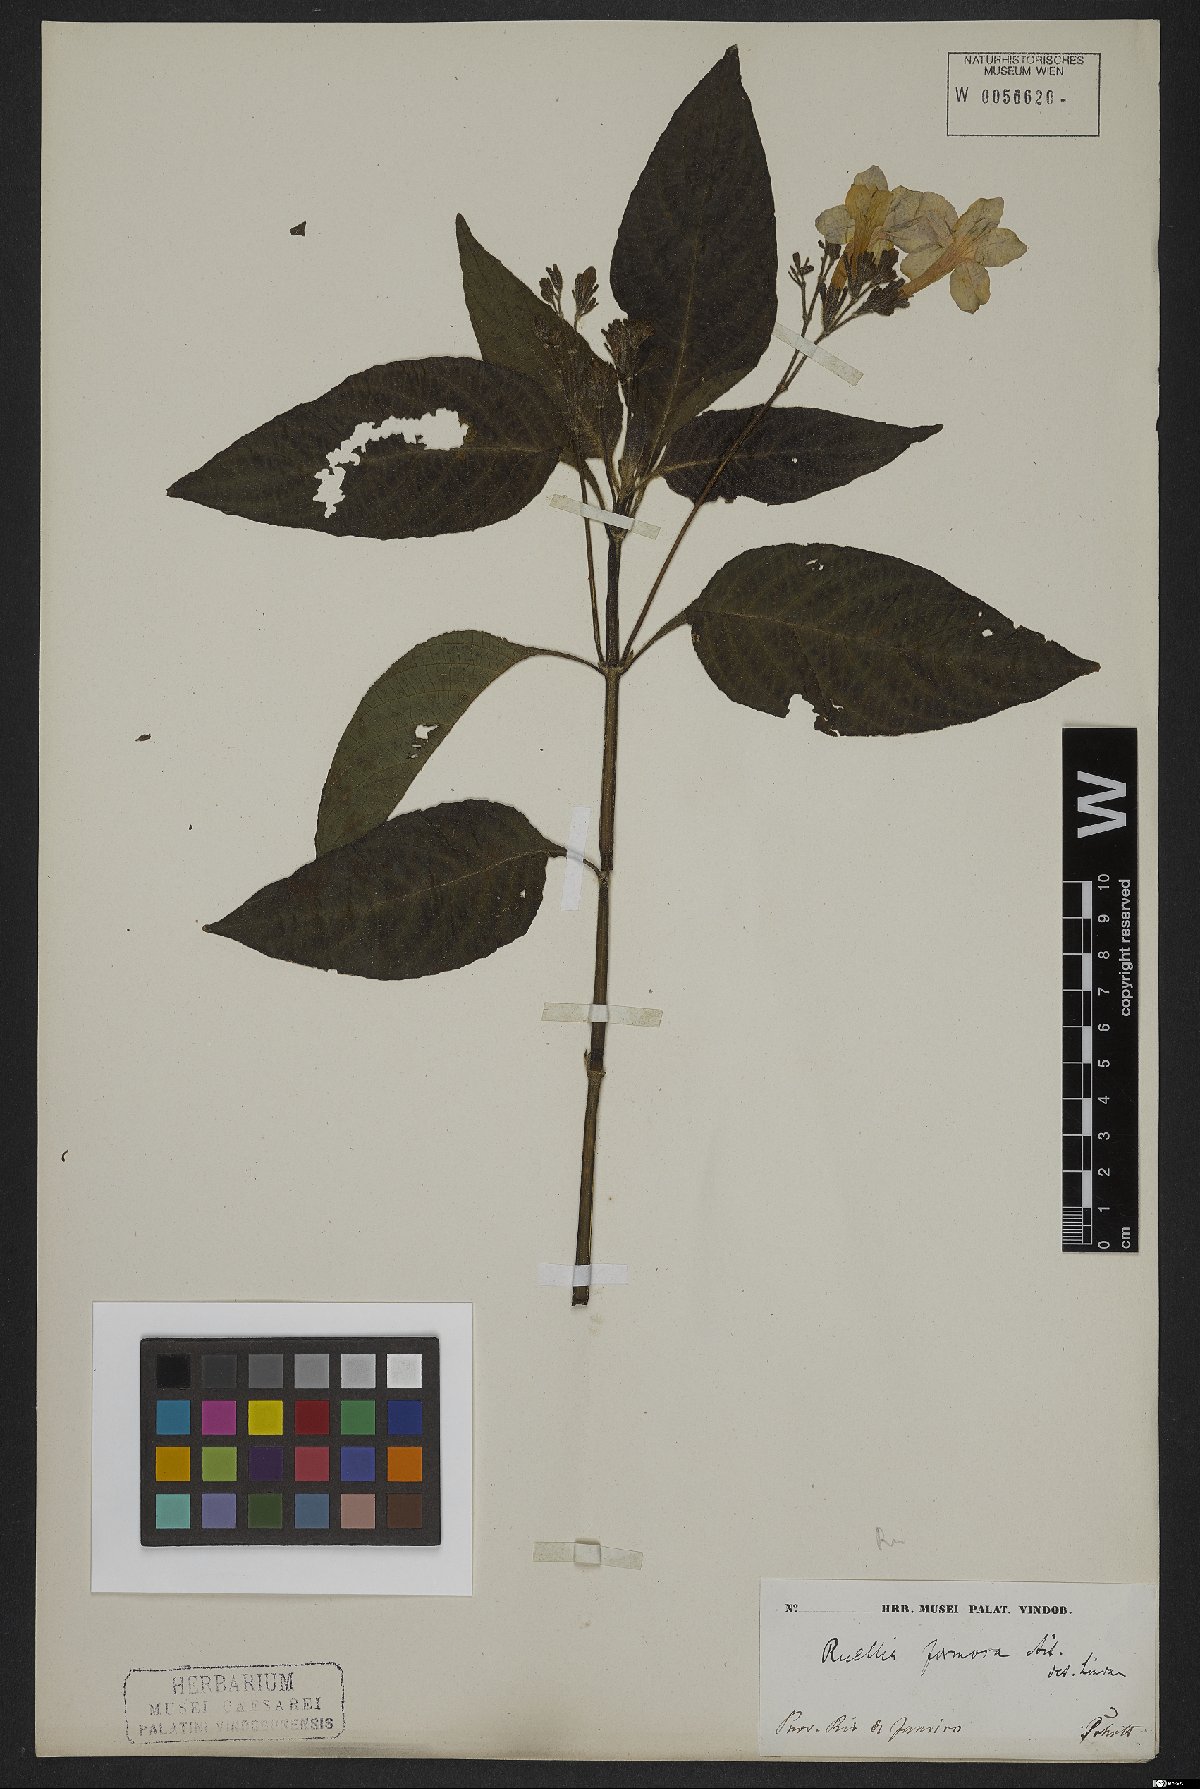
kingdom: Plantae
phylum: Tracheophyta
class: Magnoliopsida
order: Lamiales
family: Acanthaceae
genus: Aphelandra
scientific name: Aphelandra formosa
